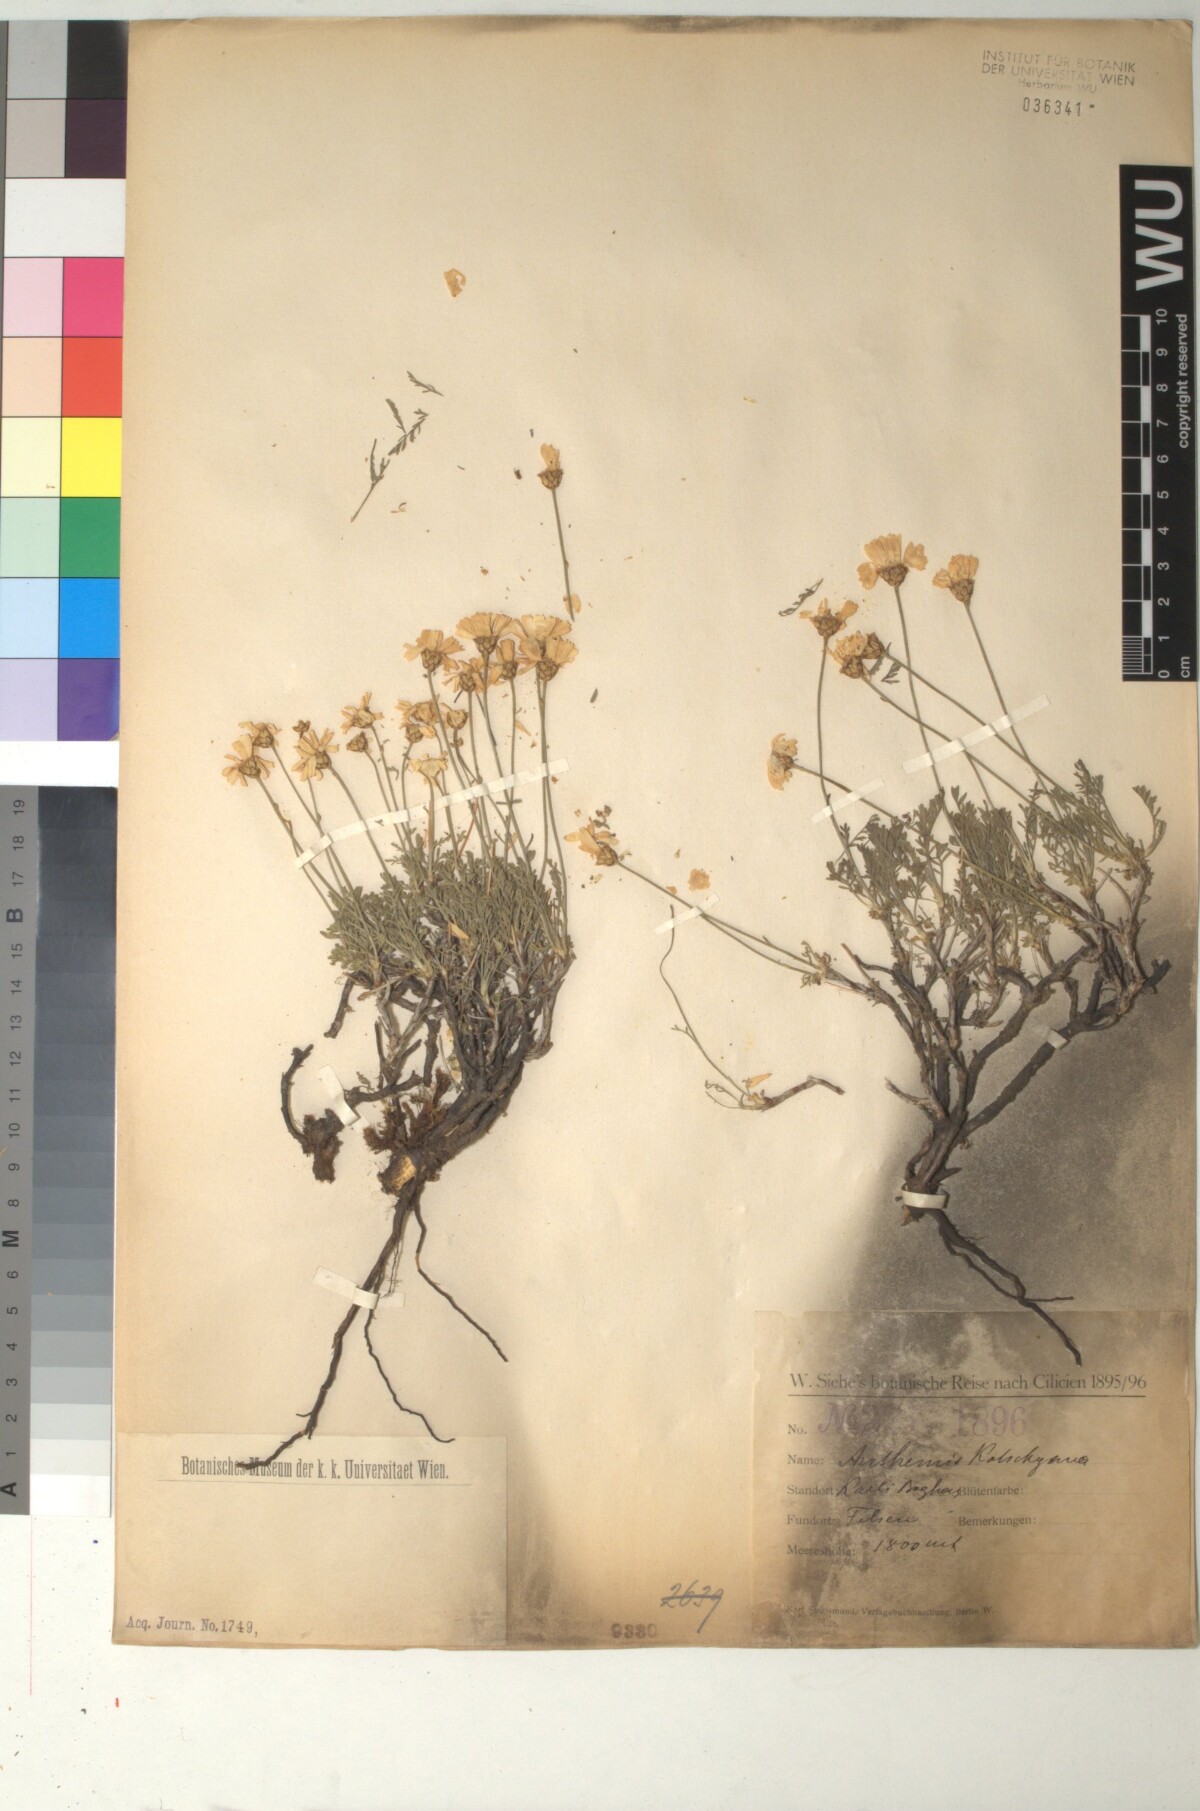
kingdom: Plantae
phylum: Tracheophyta
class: Magnoliopsida
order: Asterales
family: Asteraceae
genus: Anthemis
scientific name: Anthemis kotschyana
